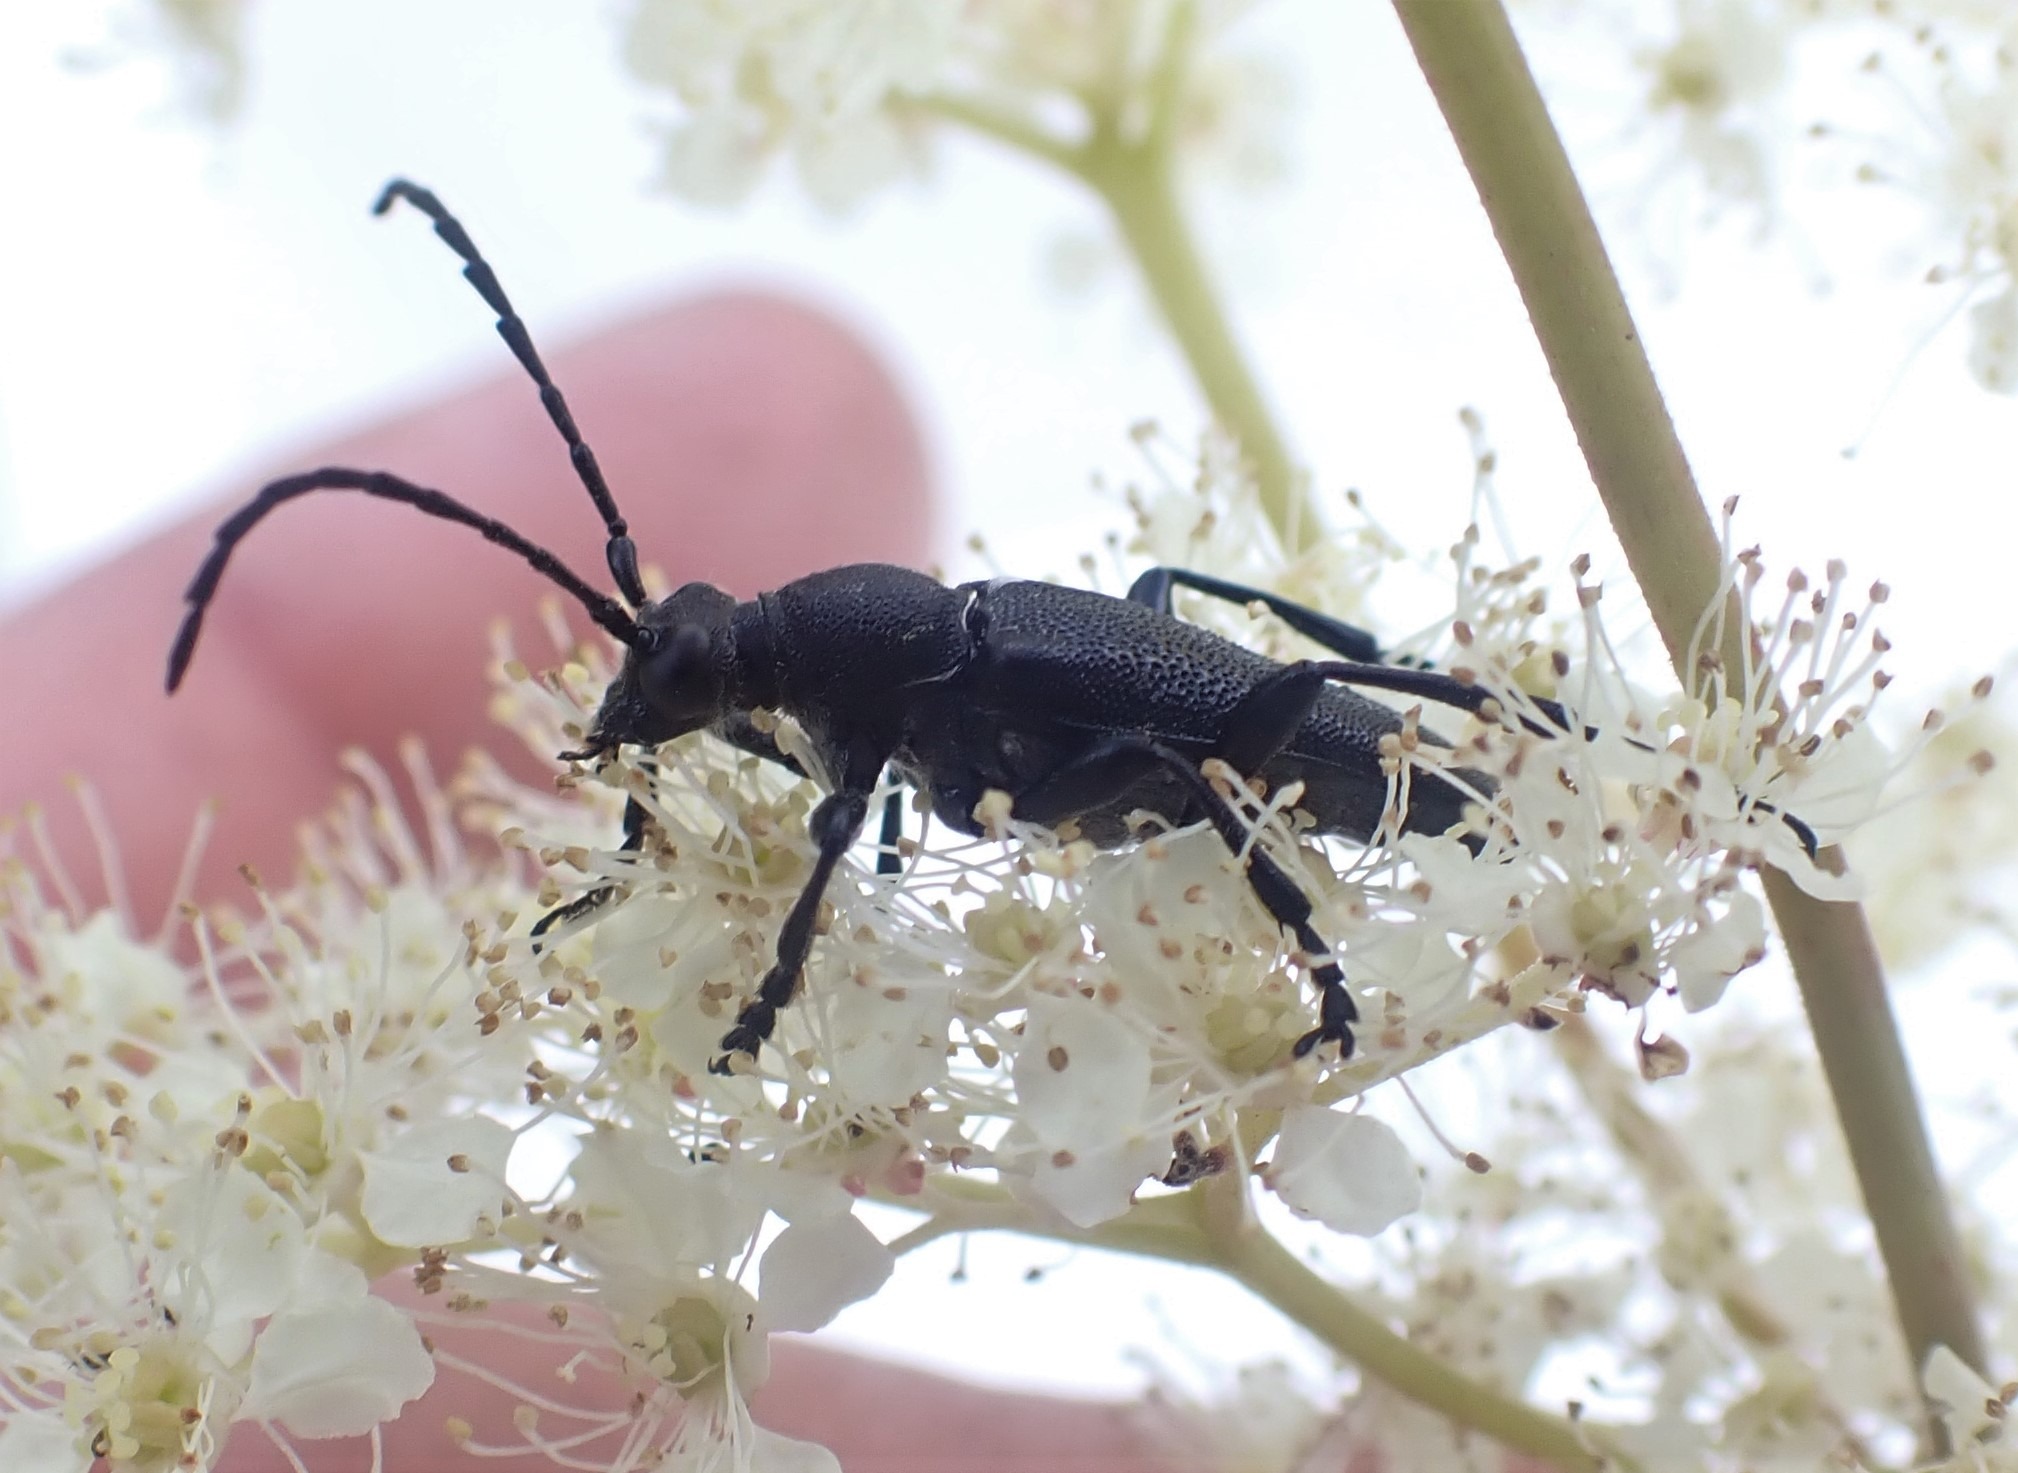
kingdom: Animalia
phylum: Arthropoda
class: Insecta
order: Coleoptera
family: Cerambycidae
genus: Stictoleptura
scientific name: Stictoleptura scutellata
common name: Sort blomsterbuk
